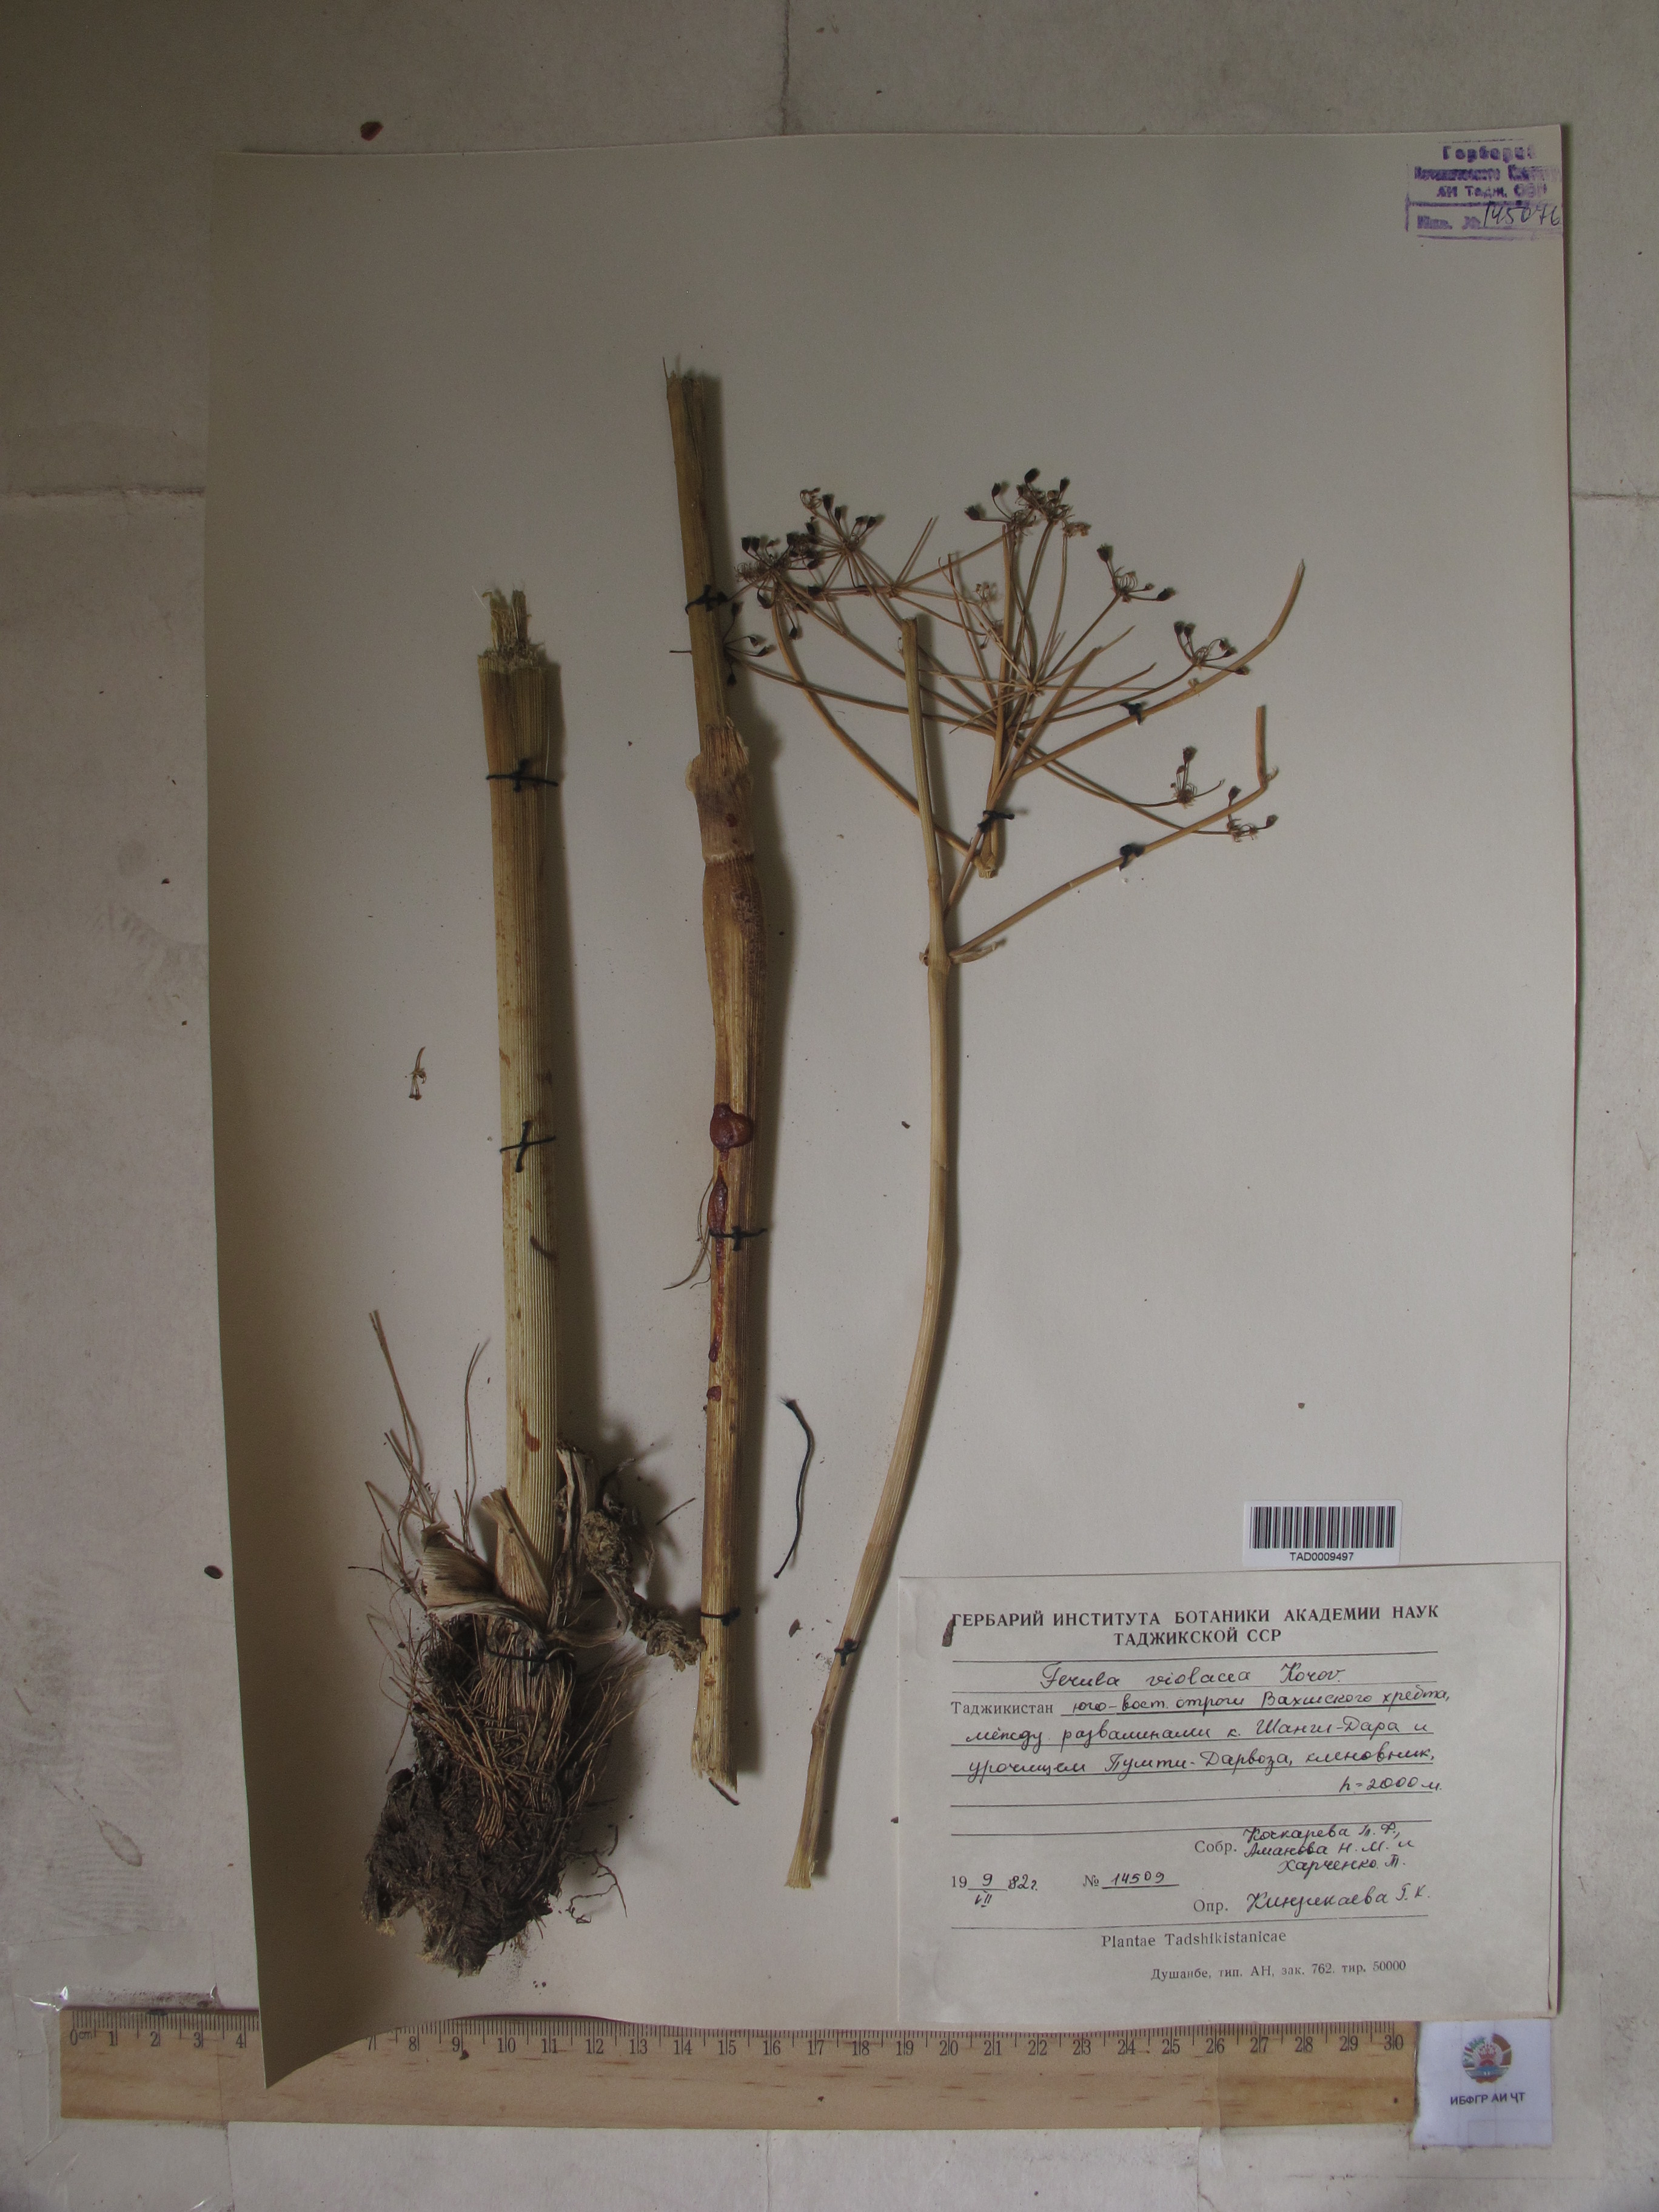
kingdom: Plantae
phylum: Tracheophyta
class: Magnoliopsida
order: Apiales
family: Apiaceae
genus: Ferula
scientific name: Ferula violacea
